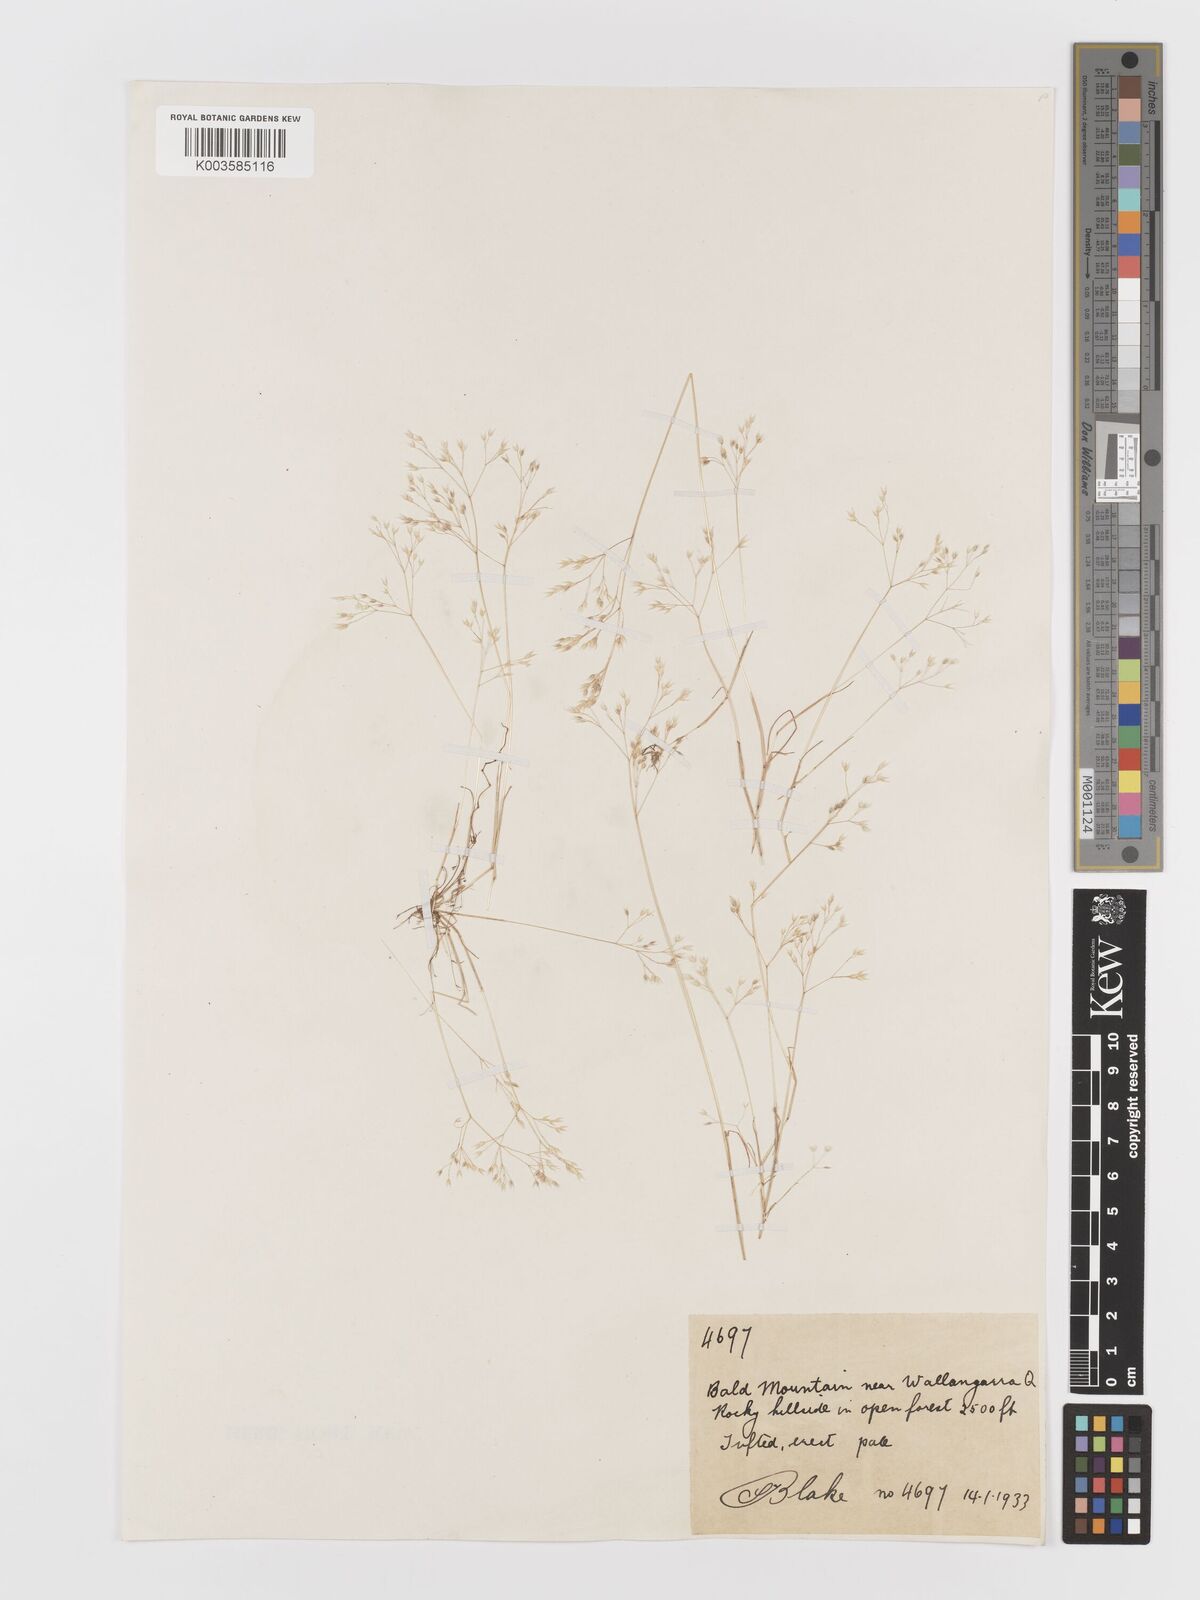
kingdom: Plantae
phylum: Tracheophyta
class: Liliopsida
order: Poales
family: Poaceae
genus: Aira
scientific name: Aira caryophyllea
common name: Silver hairgrass
